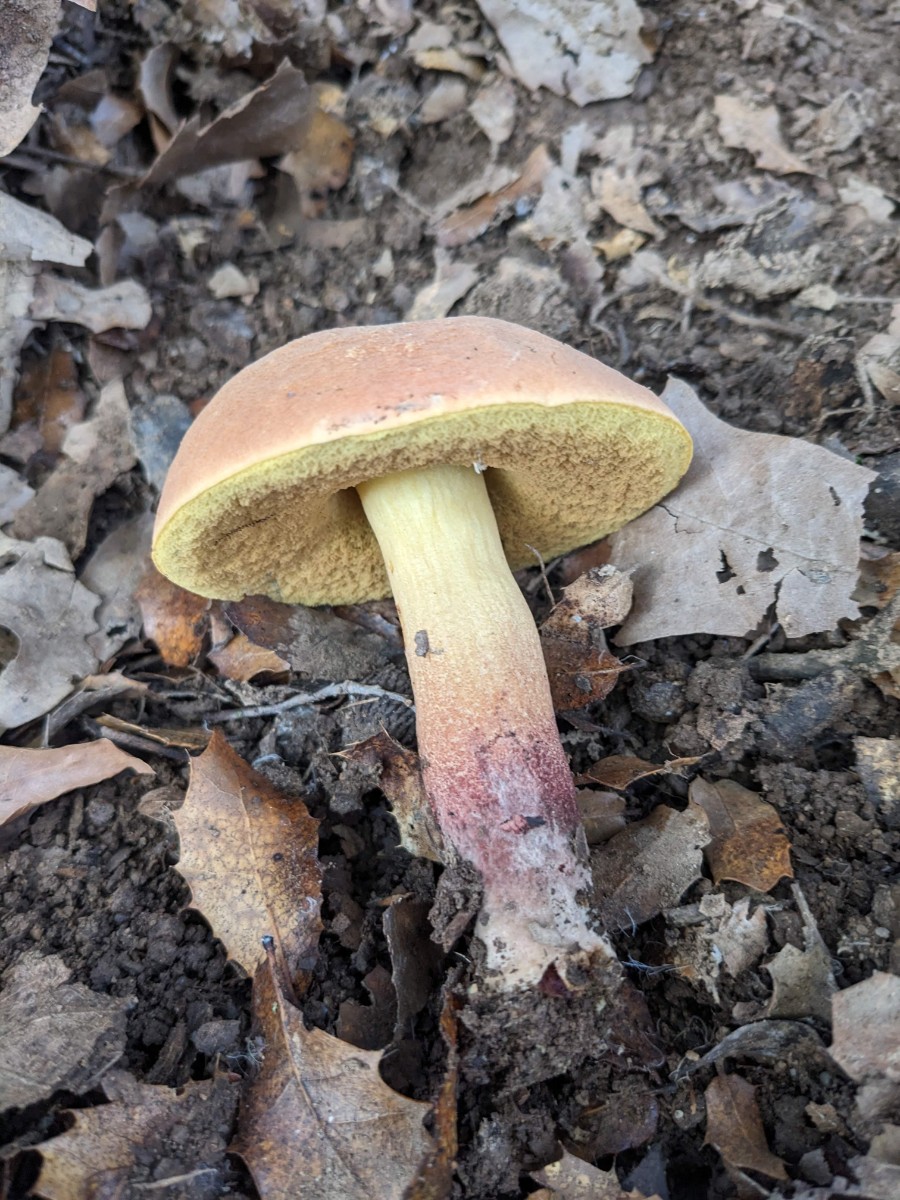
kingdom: Fungi
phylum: Basidiomycota
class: Agaricomycetes
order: Boletales
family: Boletaceae
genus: Suillellus
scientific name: Suillellus queletii
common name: glatstokket indigorørhat
